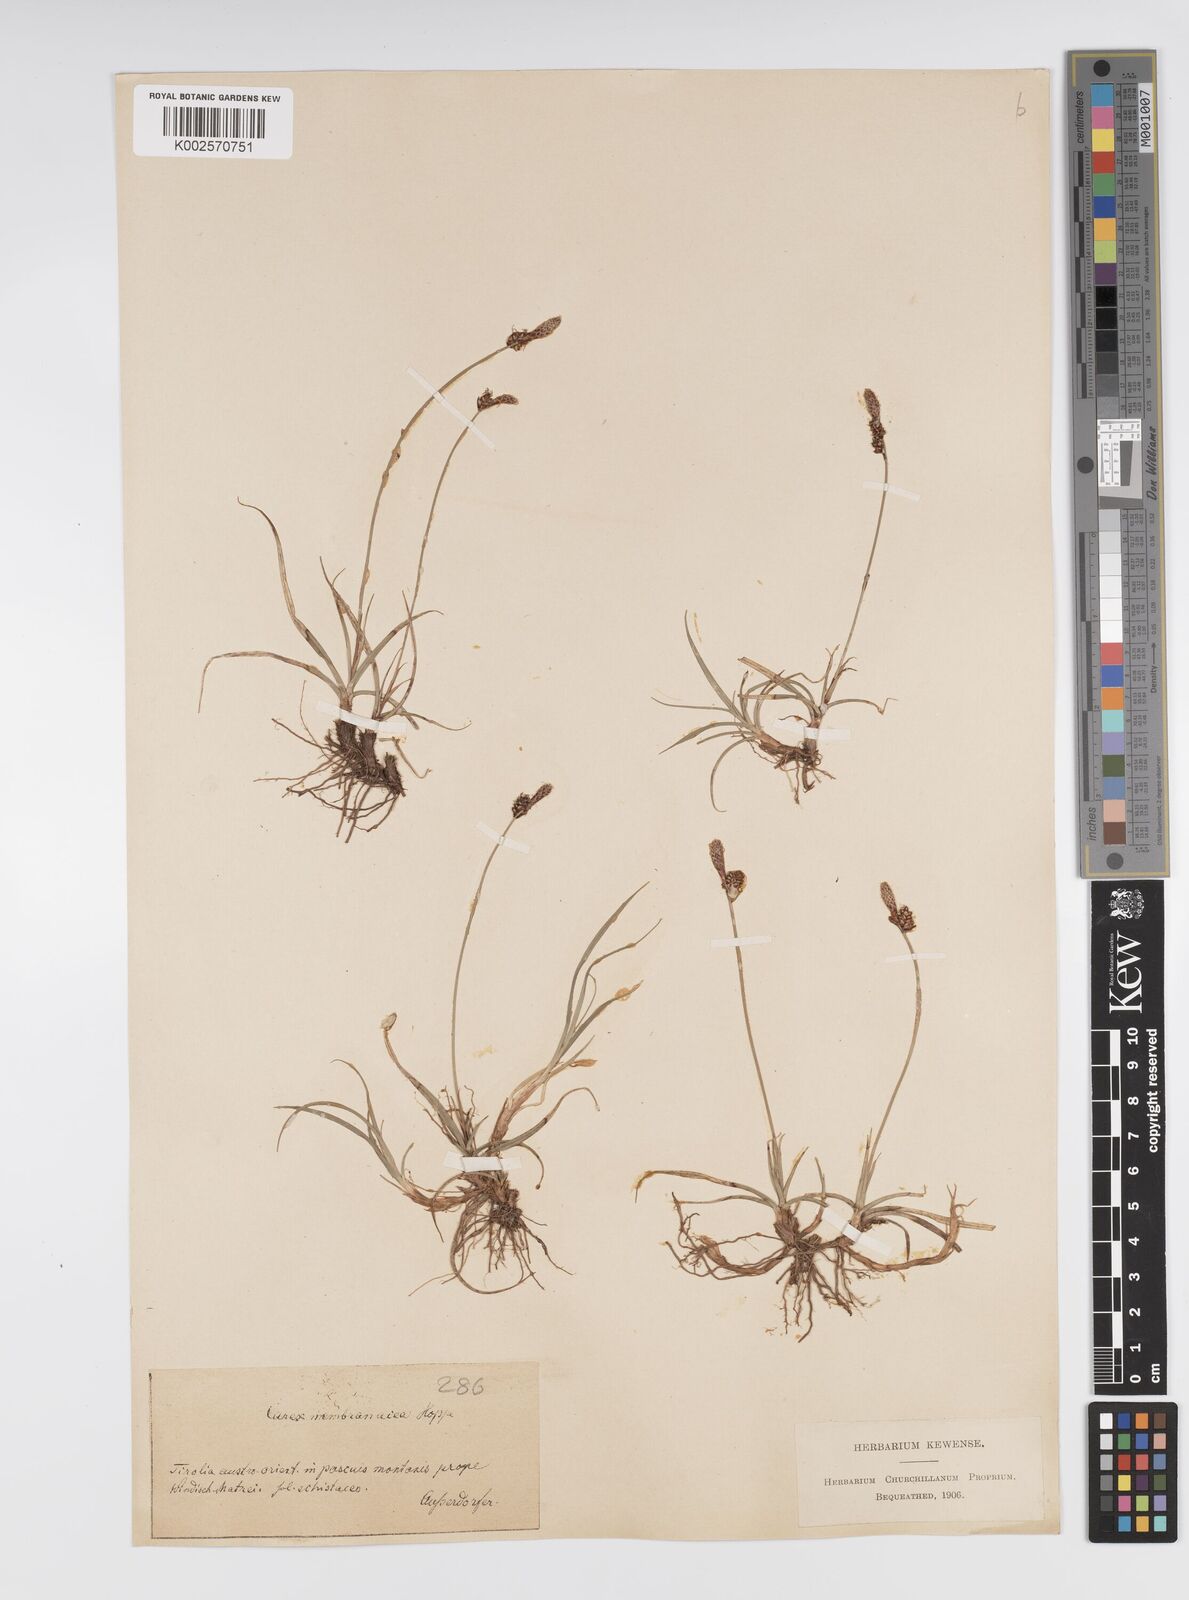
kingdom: Plantae
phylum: Tracheophyta
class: Liliopsida
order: Poales
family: Cyperaceae
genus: Carex
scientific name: Carex ericetorum
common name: Rare spring-sedge
